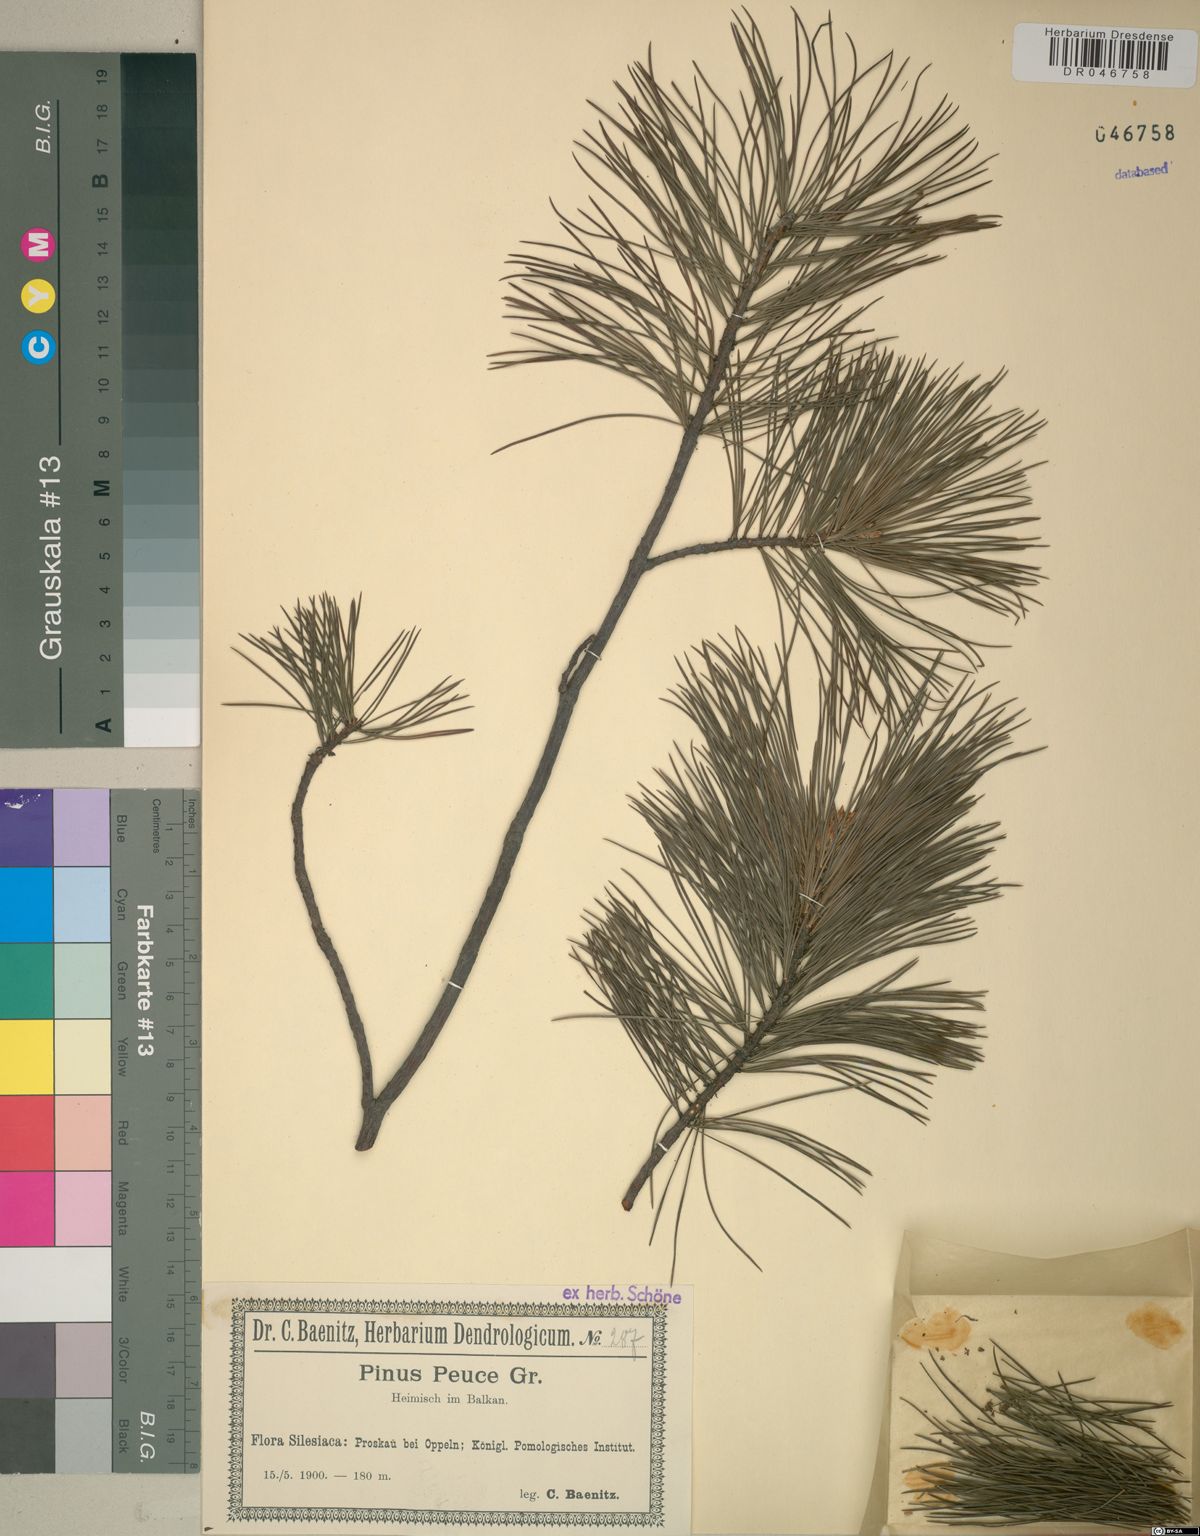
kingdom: Plantae
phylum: Tracheophyta
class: Pinopsida
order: Pinales
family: Pinaceae
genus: Pinus
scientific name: Pinus peuce
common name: Macedonian pine
